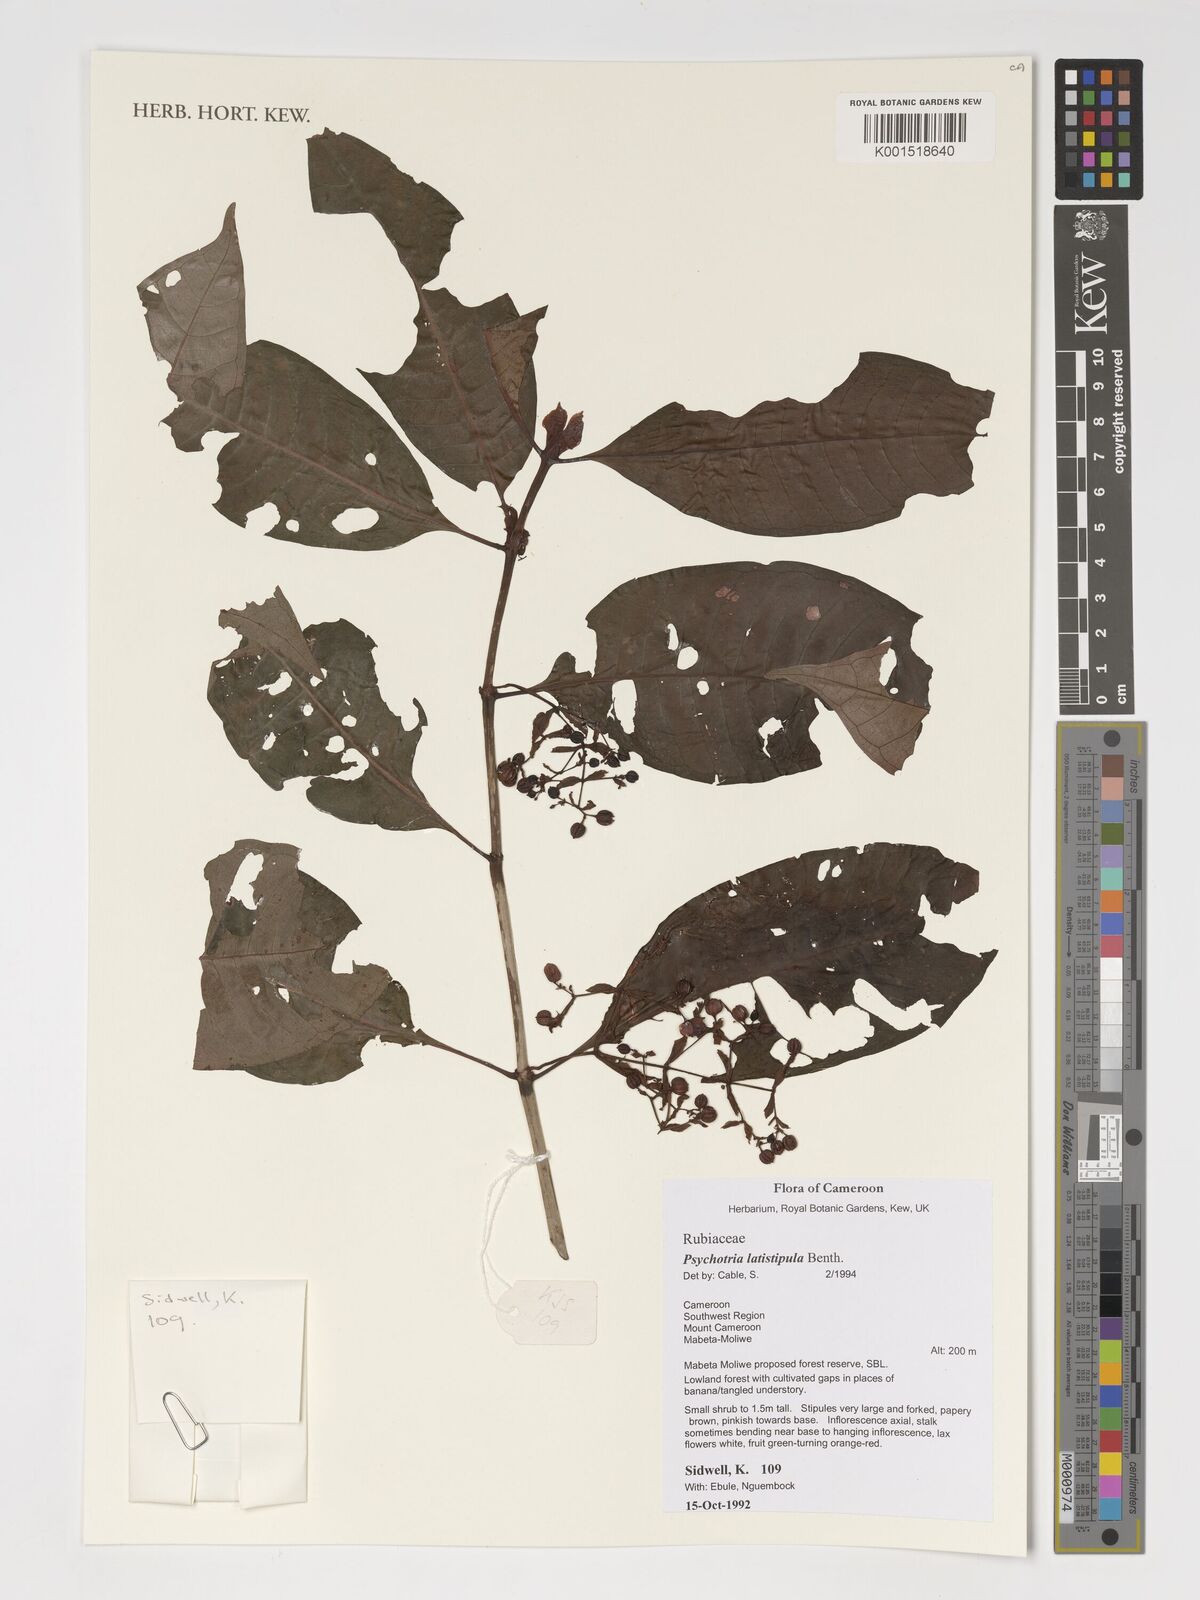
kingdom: Plantae
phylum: Tracheophyta
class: Magnoliopsida
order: Gentianales
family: Rubiaceae
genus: Psychotria
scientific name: Psychotria latistipula
